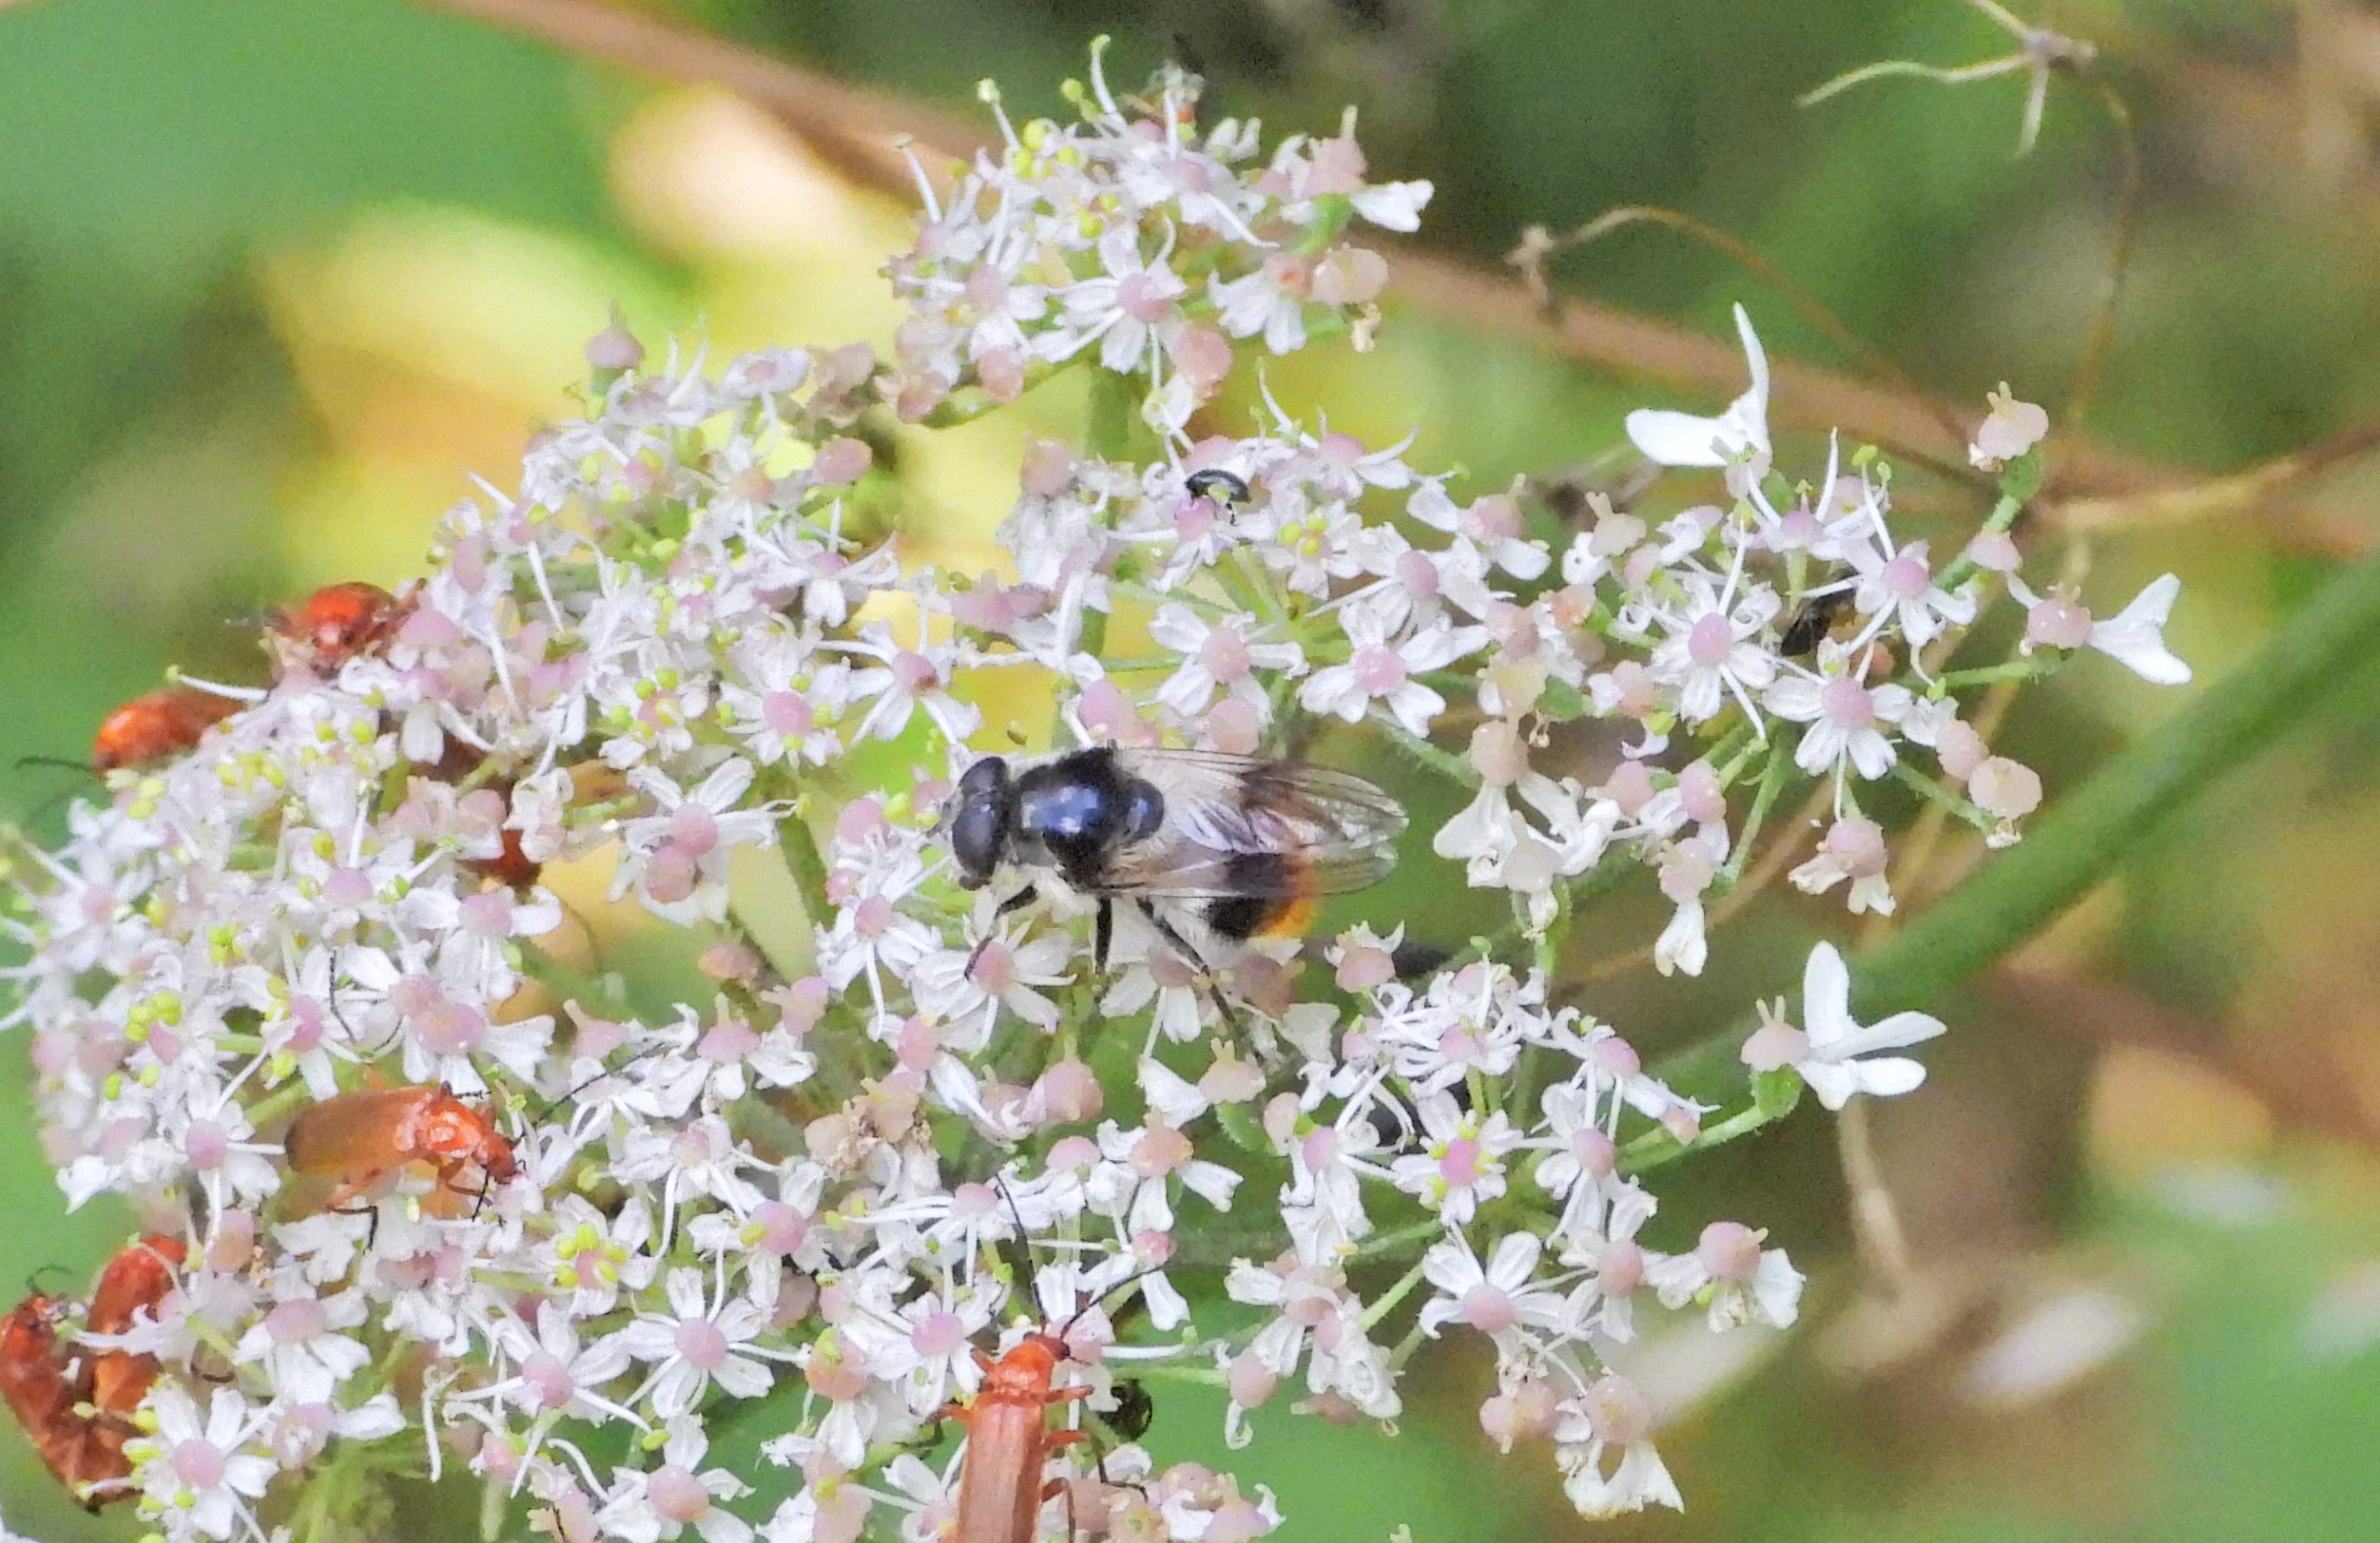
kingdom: Animalia
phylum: Arthropoda
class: Insecta
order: Diptera
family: Syrphidae
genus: Cheilosia
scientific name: Cheilosia illustrata
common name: Broget urtesvirreflue
